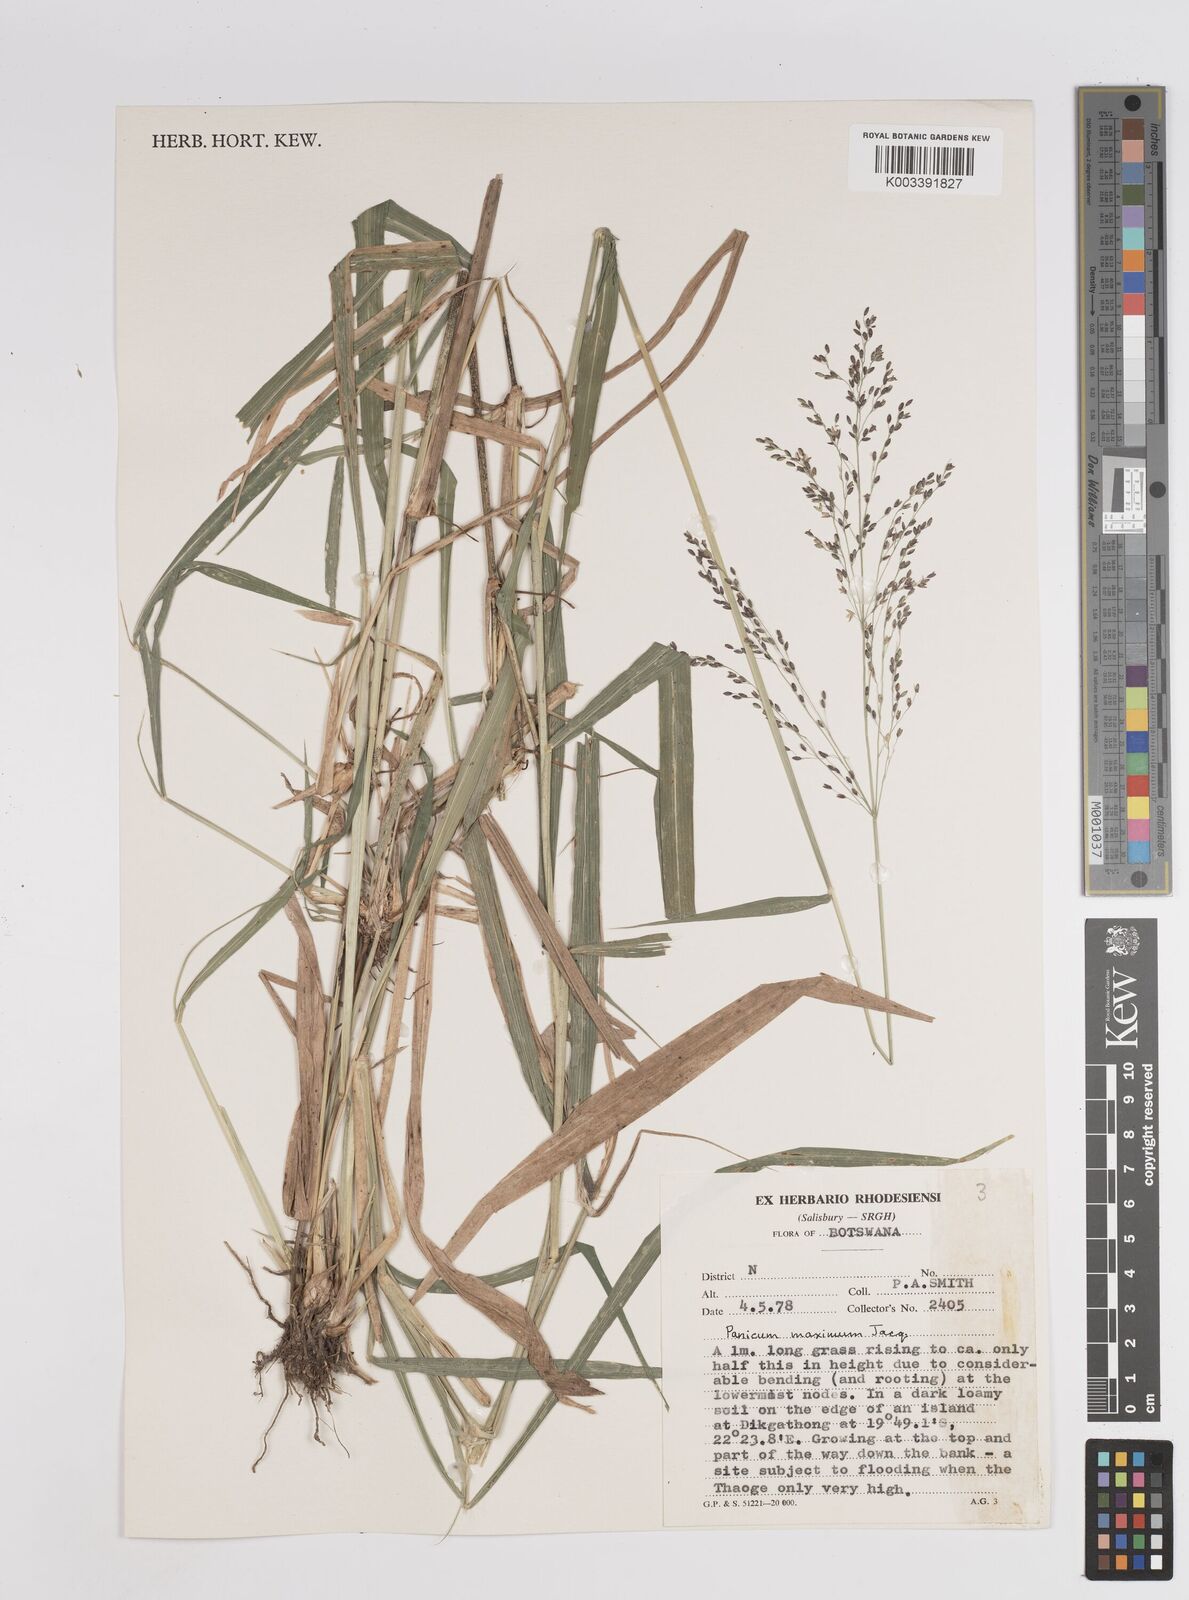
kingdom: Plantae
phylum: Tracheophyta
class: Liliopsida
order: Poales
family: Poaceae
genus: Megathyrsus
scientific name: Megathyrsus maximus
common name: Guineagrass
